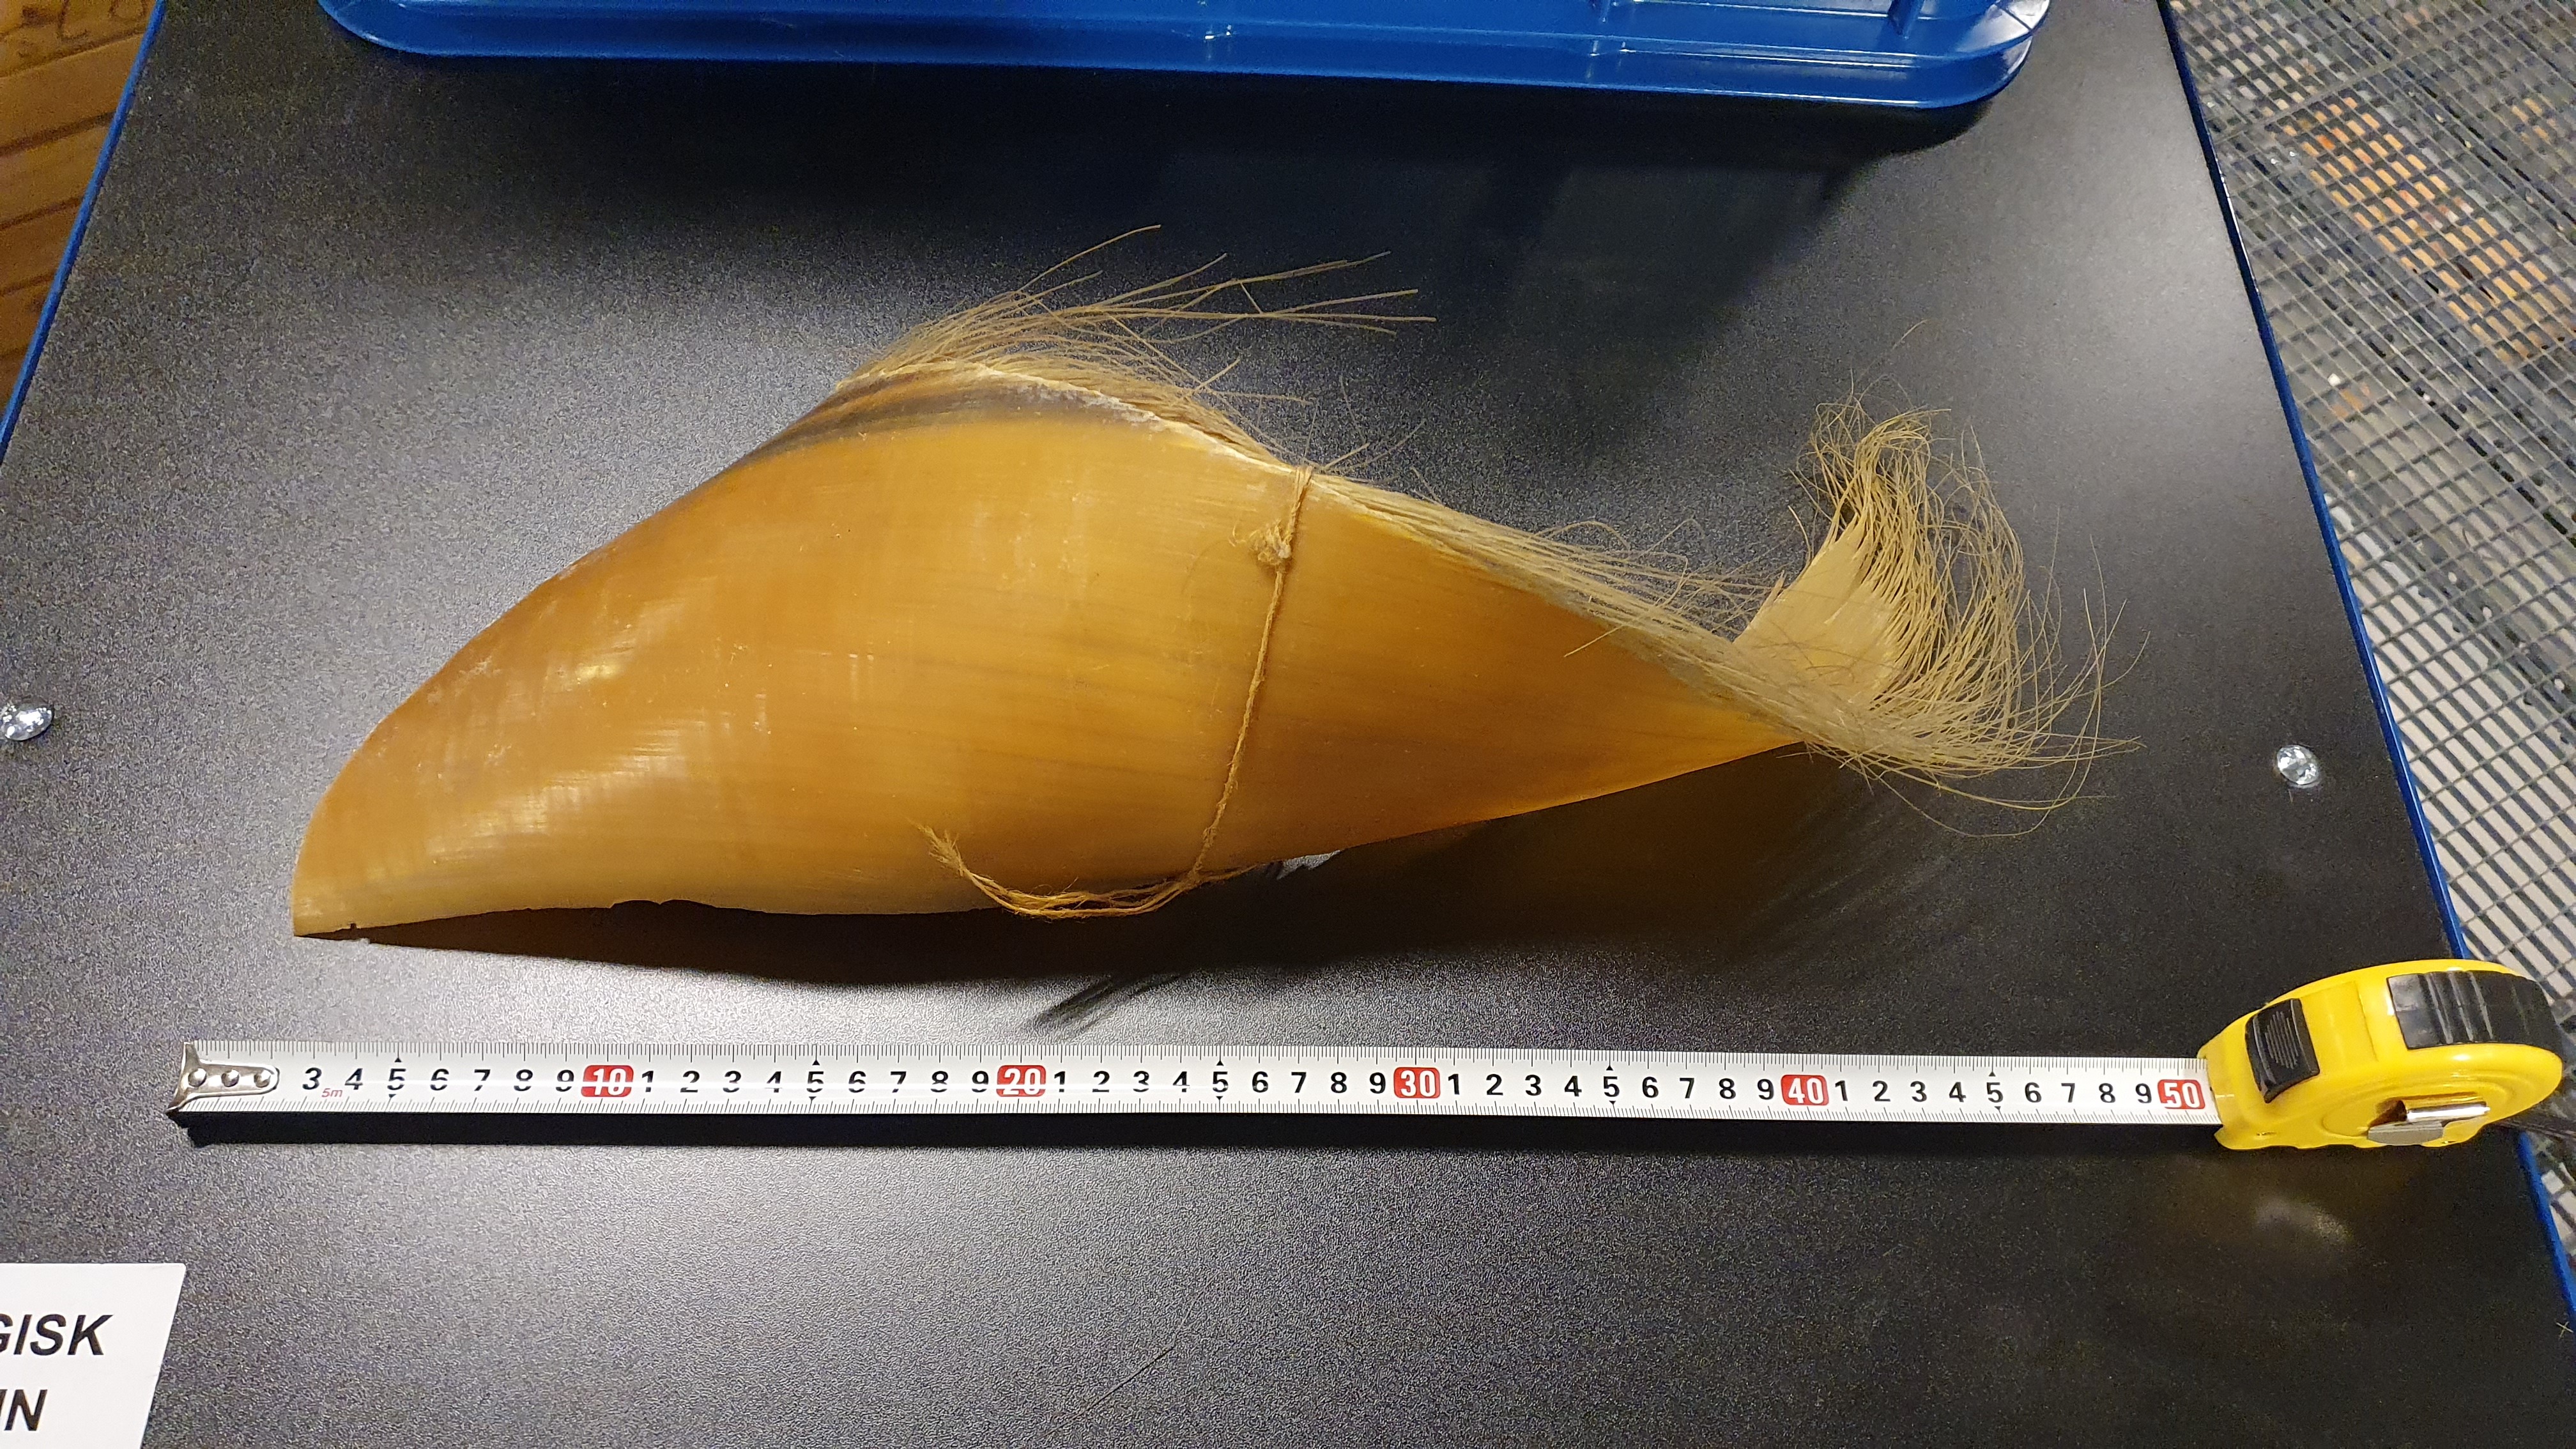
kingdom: Animalia
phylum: Chordata
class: Mammalia
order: Cetacea
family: Balaenopteridae
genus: Balaenoptera
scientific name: Balaenoptera
